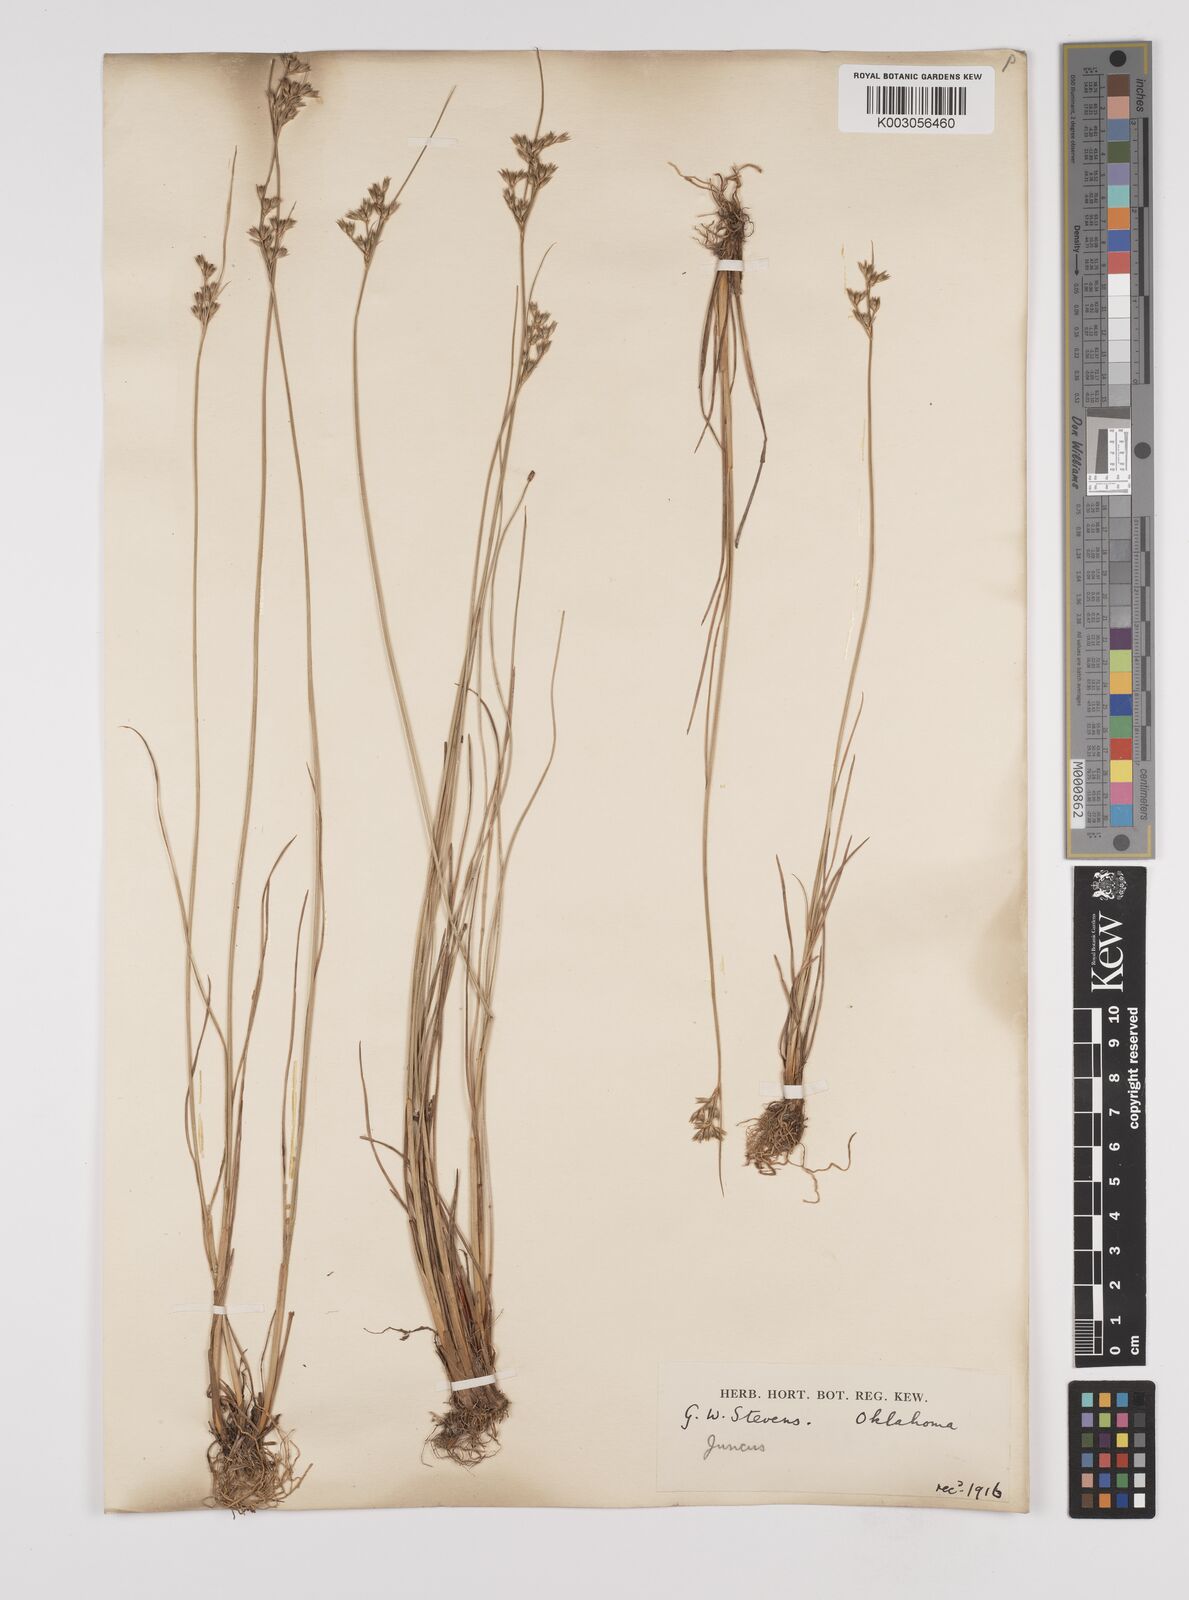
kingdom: Plantae
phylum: Tracheophyta
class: Liliopsida
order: Poales
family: Juncaceae
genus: Juncus
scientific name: Juncus dudleyi
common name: Dudley's rush
